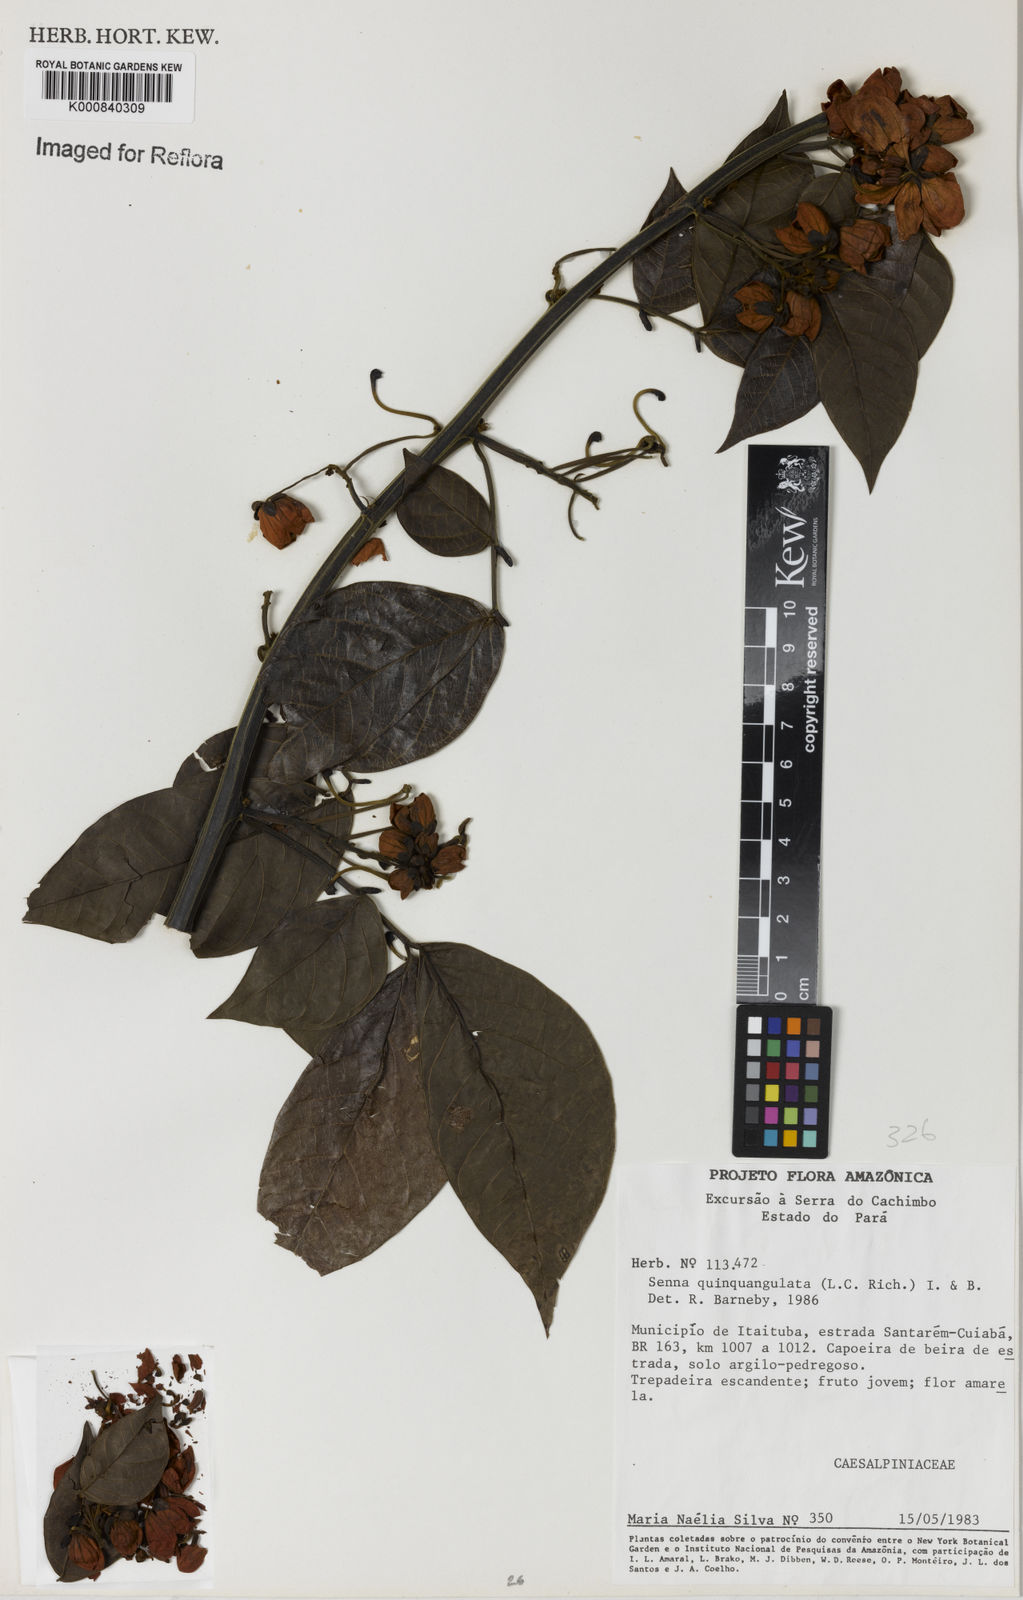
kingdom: Plantae
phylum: Tracheophyta
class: Magnoliopsida
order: Fabales
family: Fabaceae
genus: Senna
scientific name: Senna
